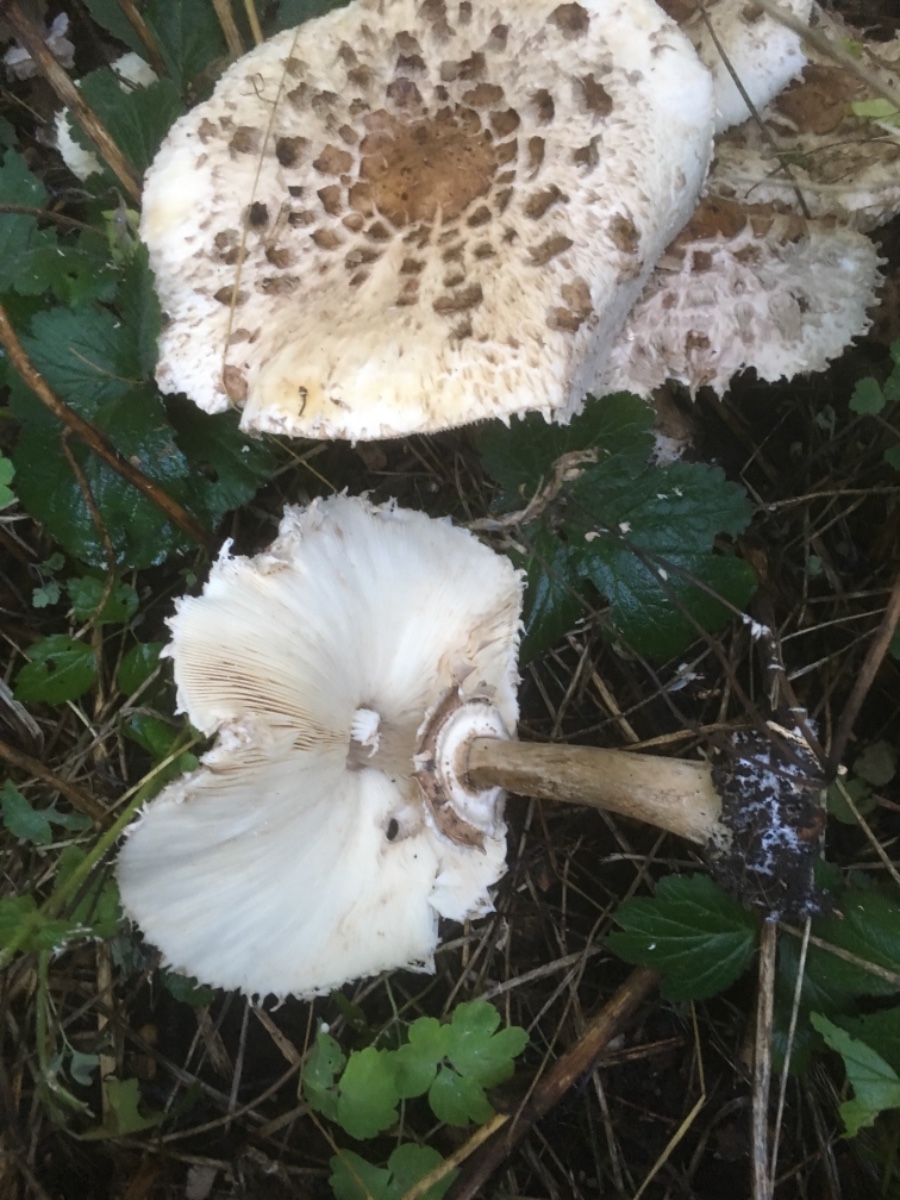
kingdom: Fungi
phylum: Basidiomycota
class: Agaricomycetes
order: Agaricales
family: Agaricaceae
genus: Chlorophyllum
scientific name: Chlorophyllum rhacodes
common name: ægte rabarberhat
